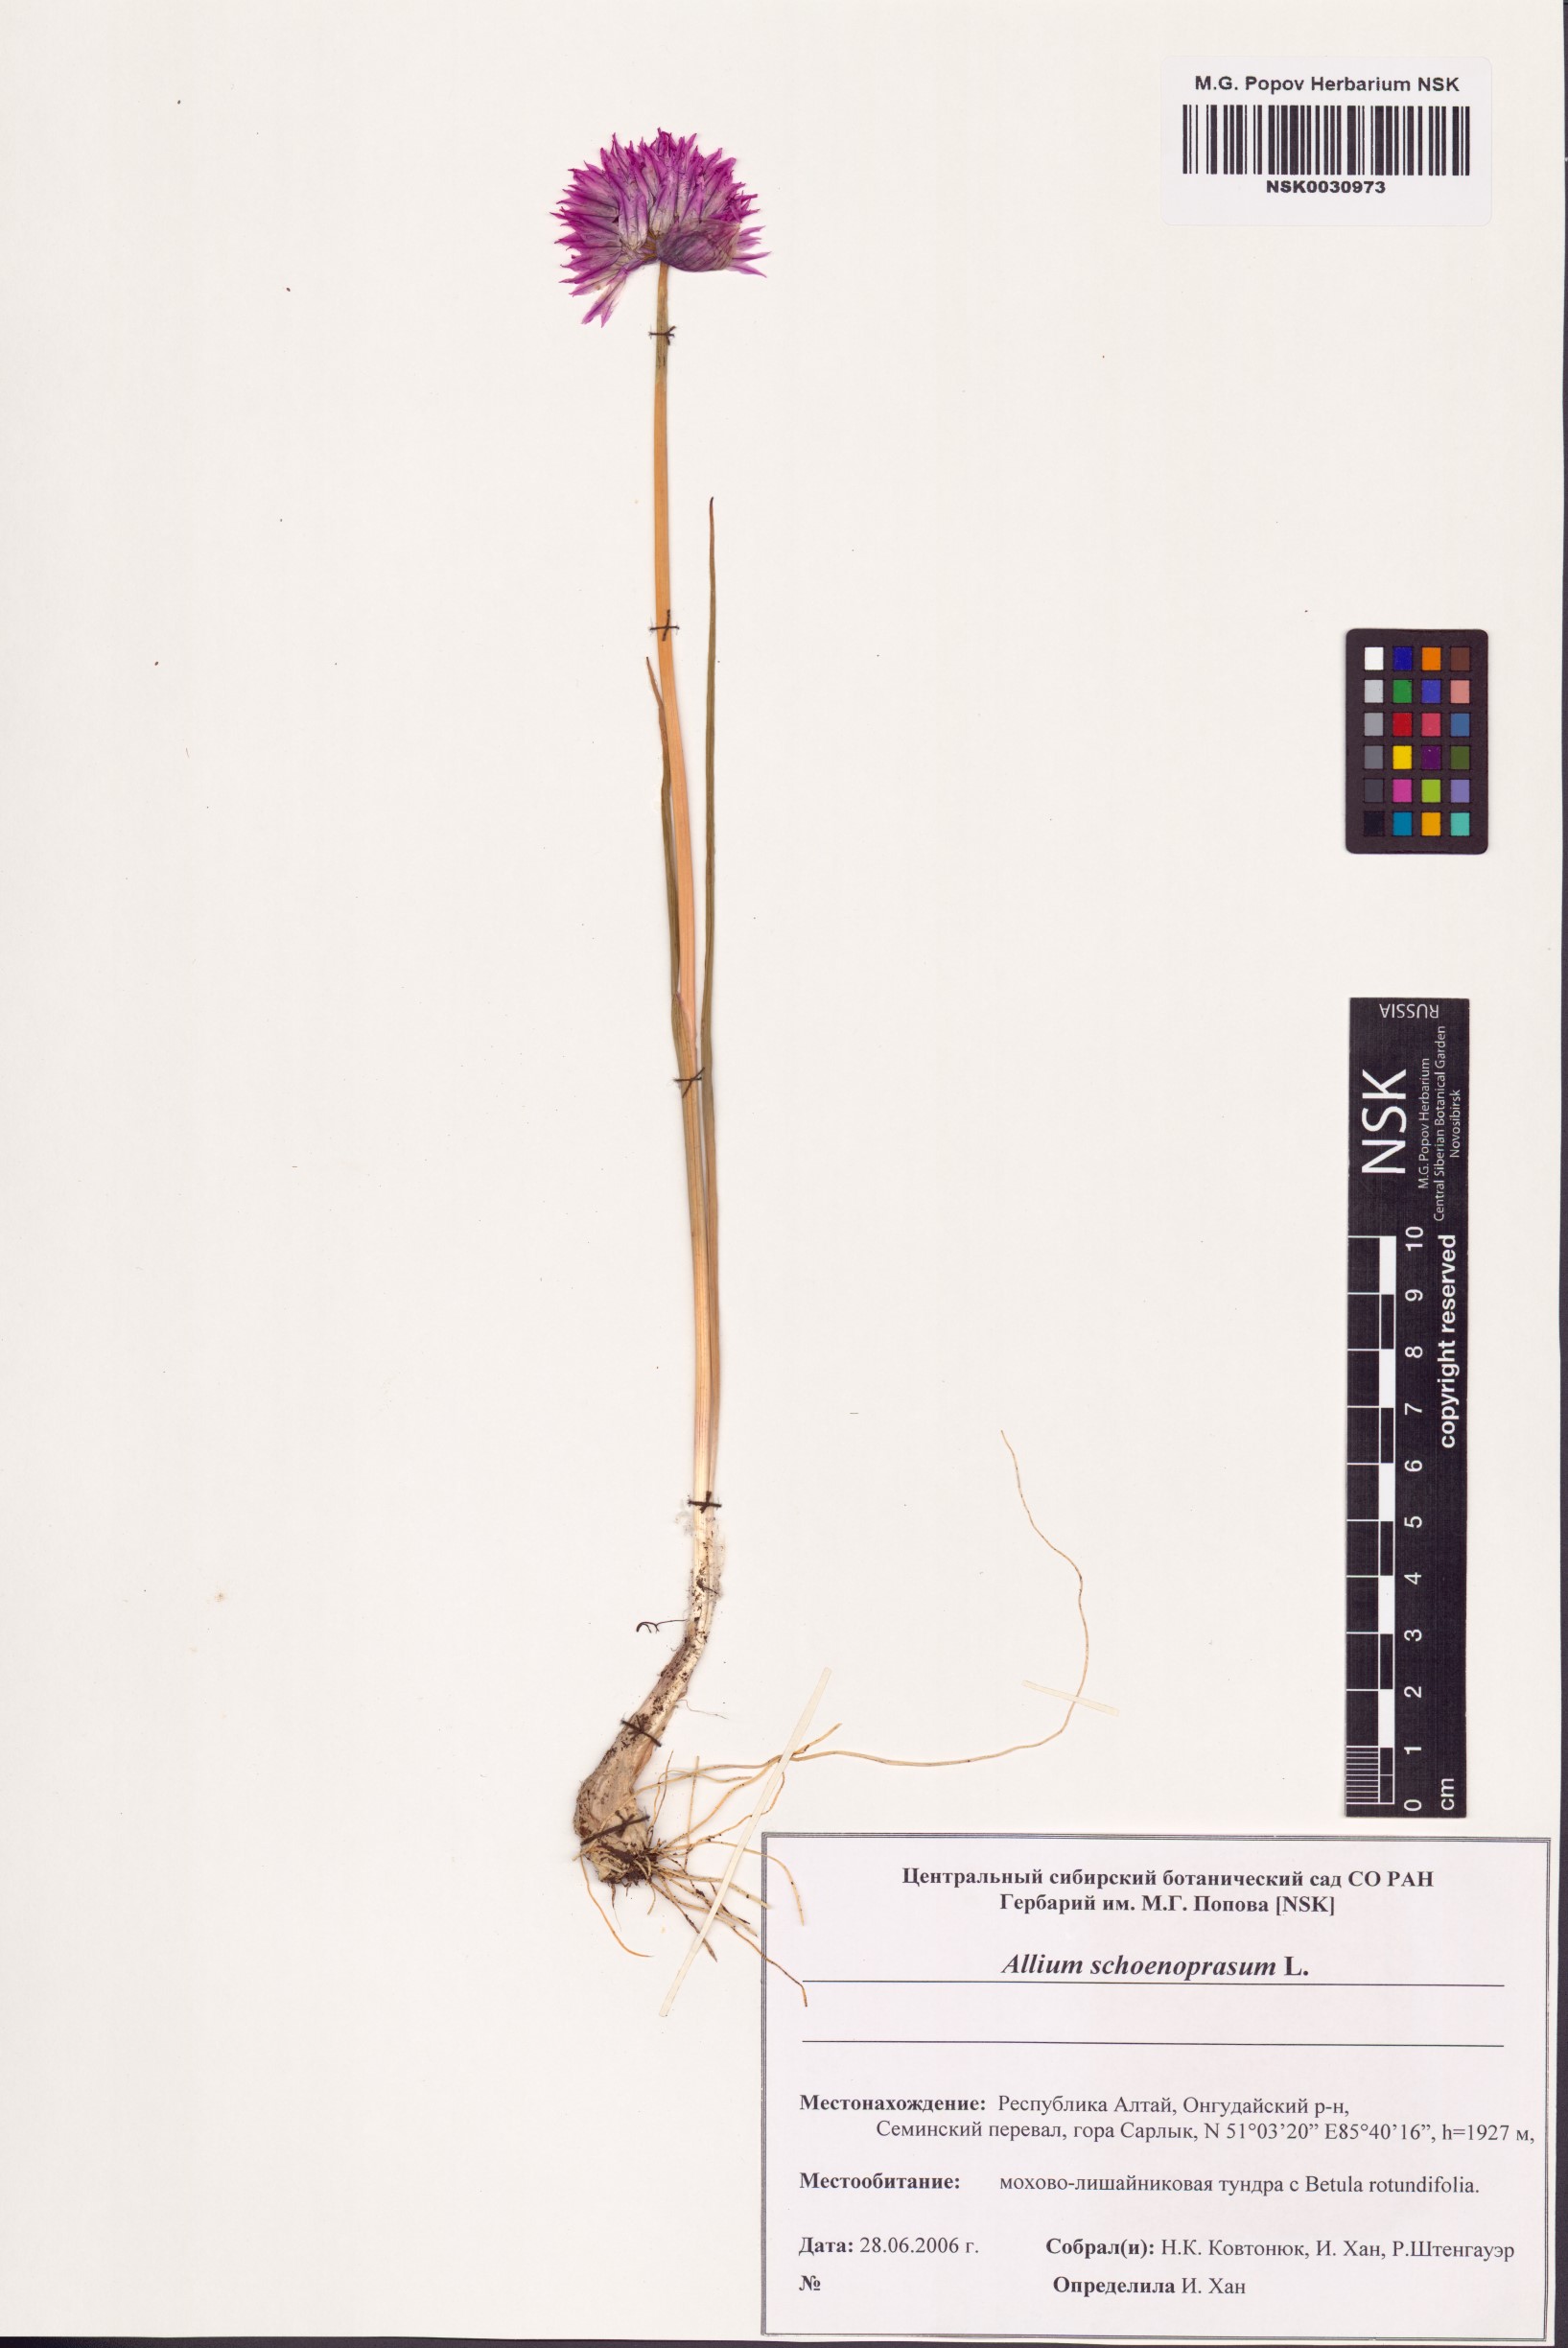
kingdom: Plantae
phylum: Tracheophyta
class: Liliopsida
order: Asparagales
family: Amaryllidaceae
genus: Allium
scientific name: Allium schoenoprasum
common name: Chives
